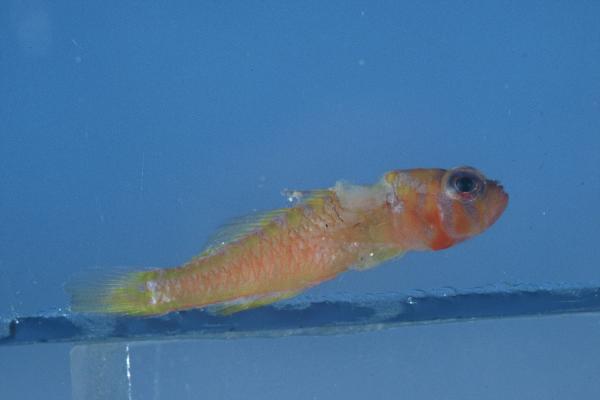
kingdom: Animalia
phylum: Chordata
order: Perciformes
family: Gobiidae
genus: Trimma
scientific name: Trimma haima
